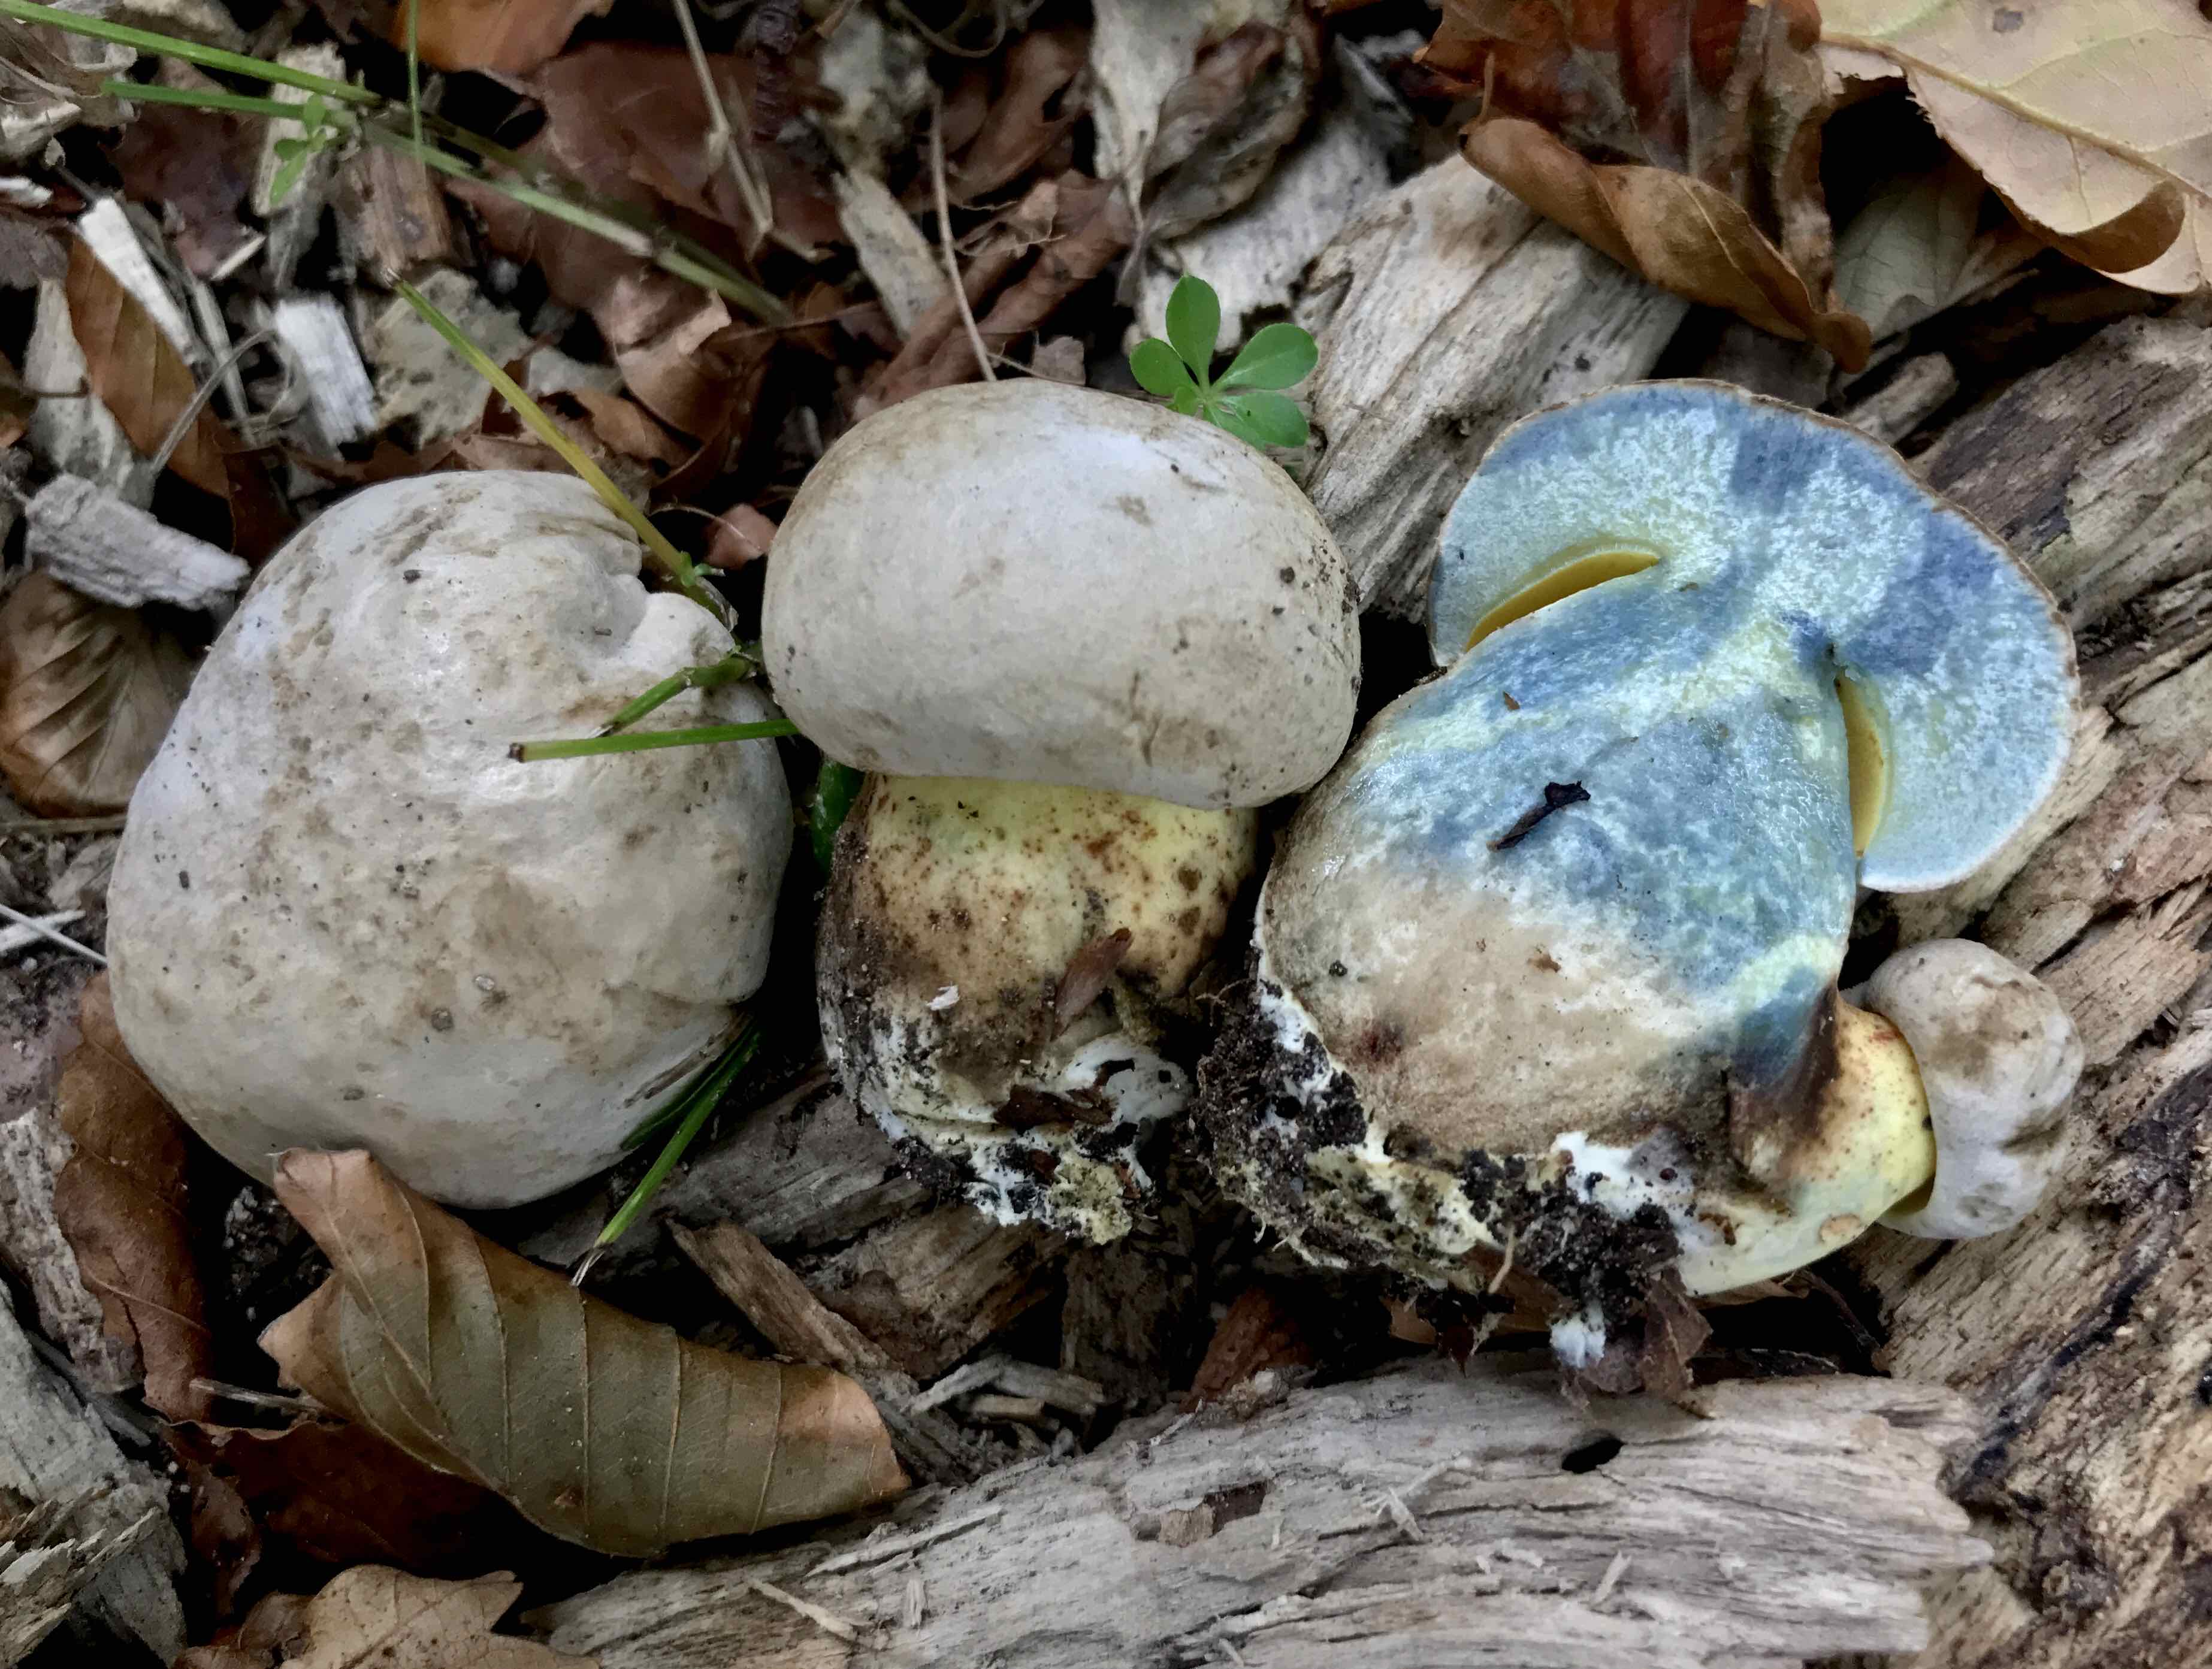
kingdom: Fungi
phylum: Basidiomycota
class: Agaricomycetes
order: Boletales
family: Boletaceae
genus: Caloboletus
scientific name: Caloboletus radicans
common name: rod-rørhat
